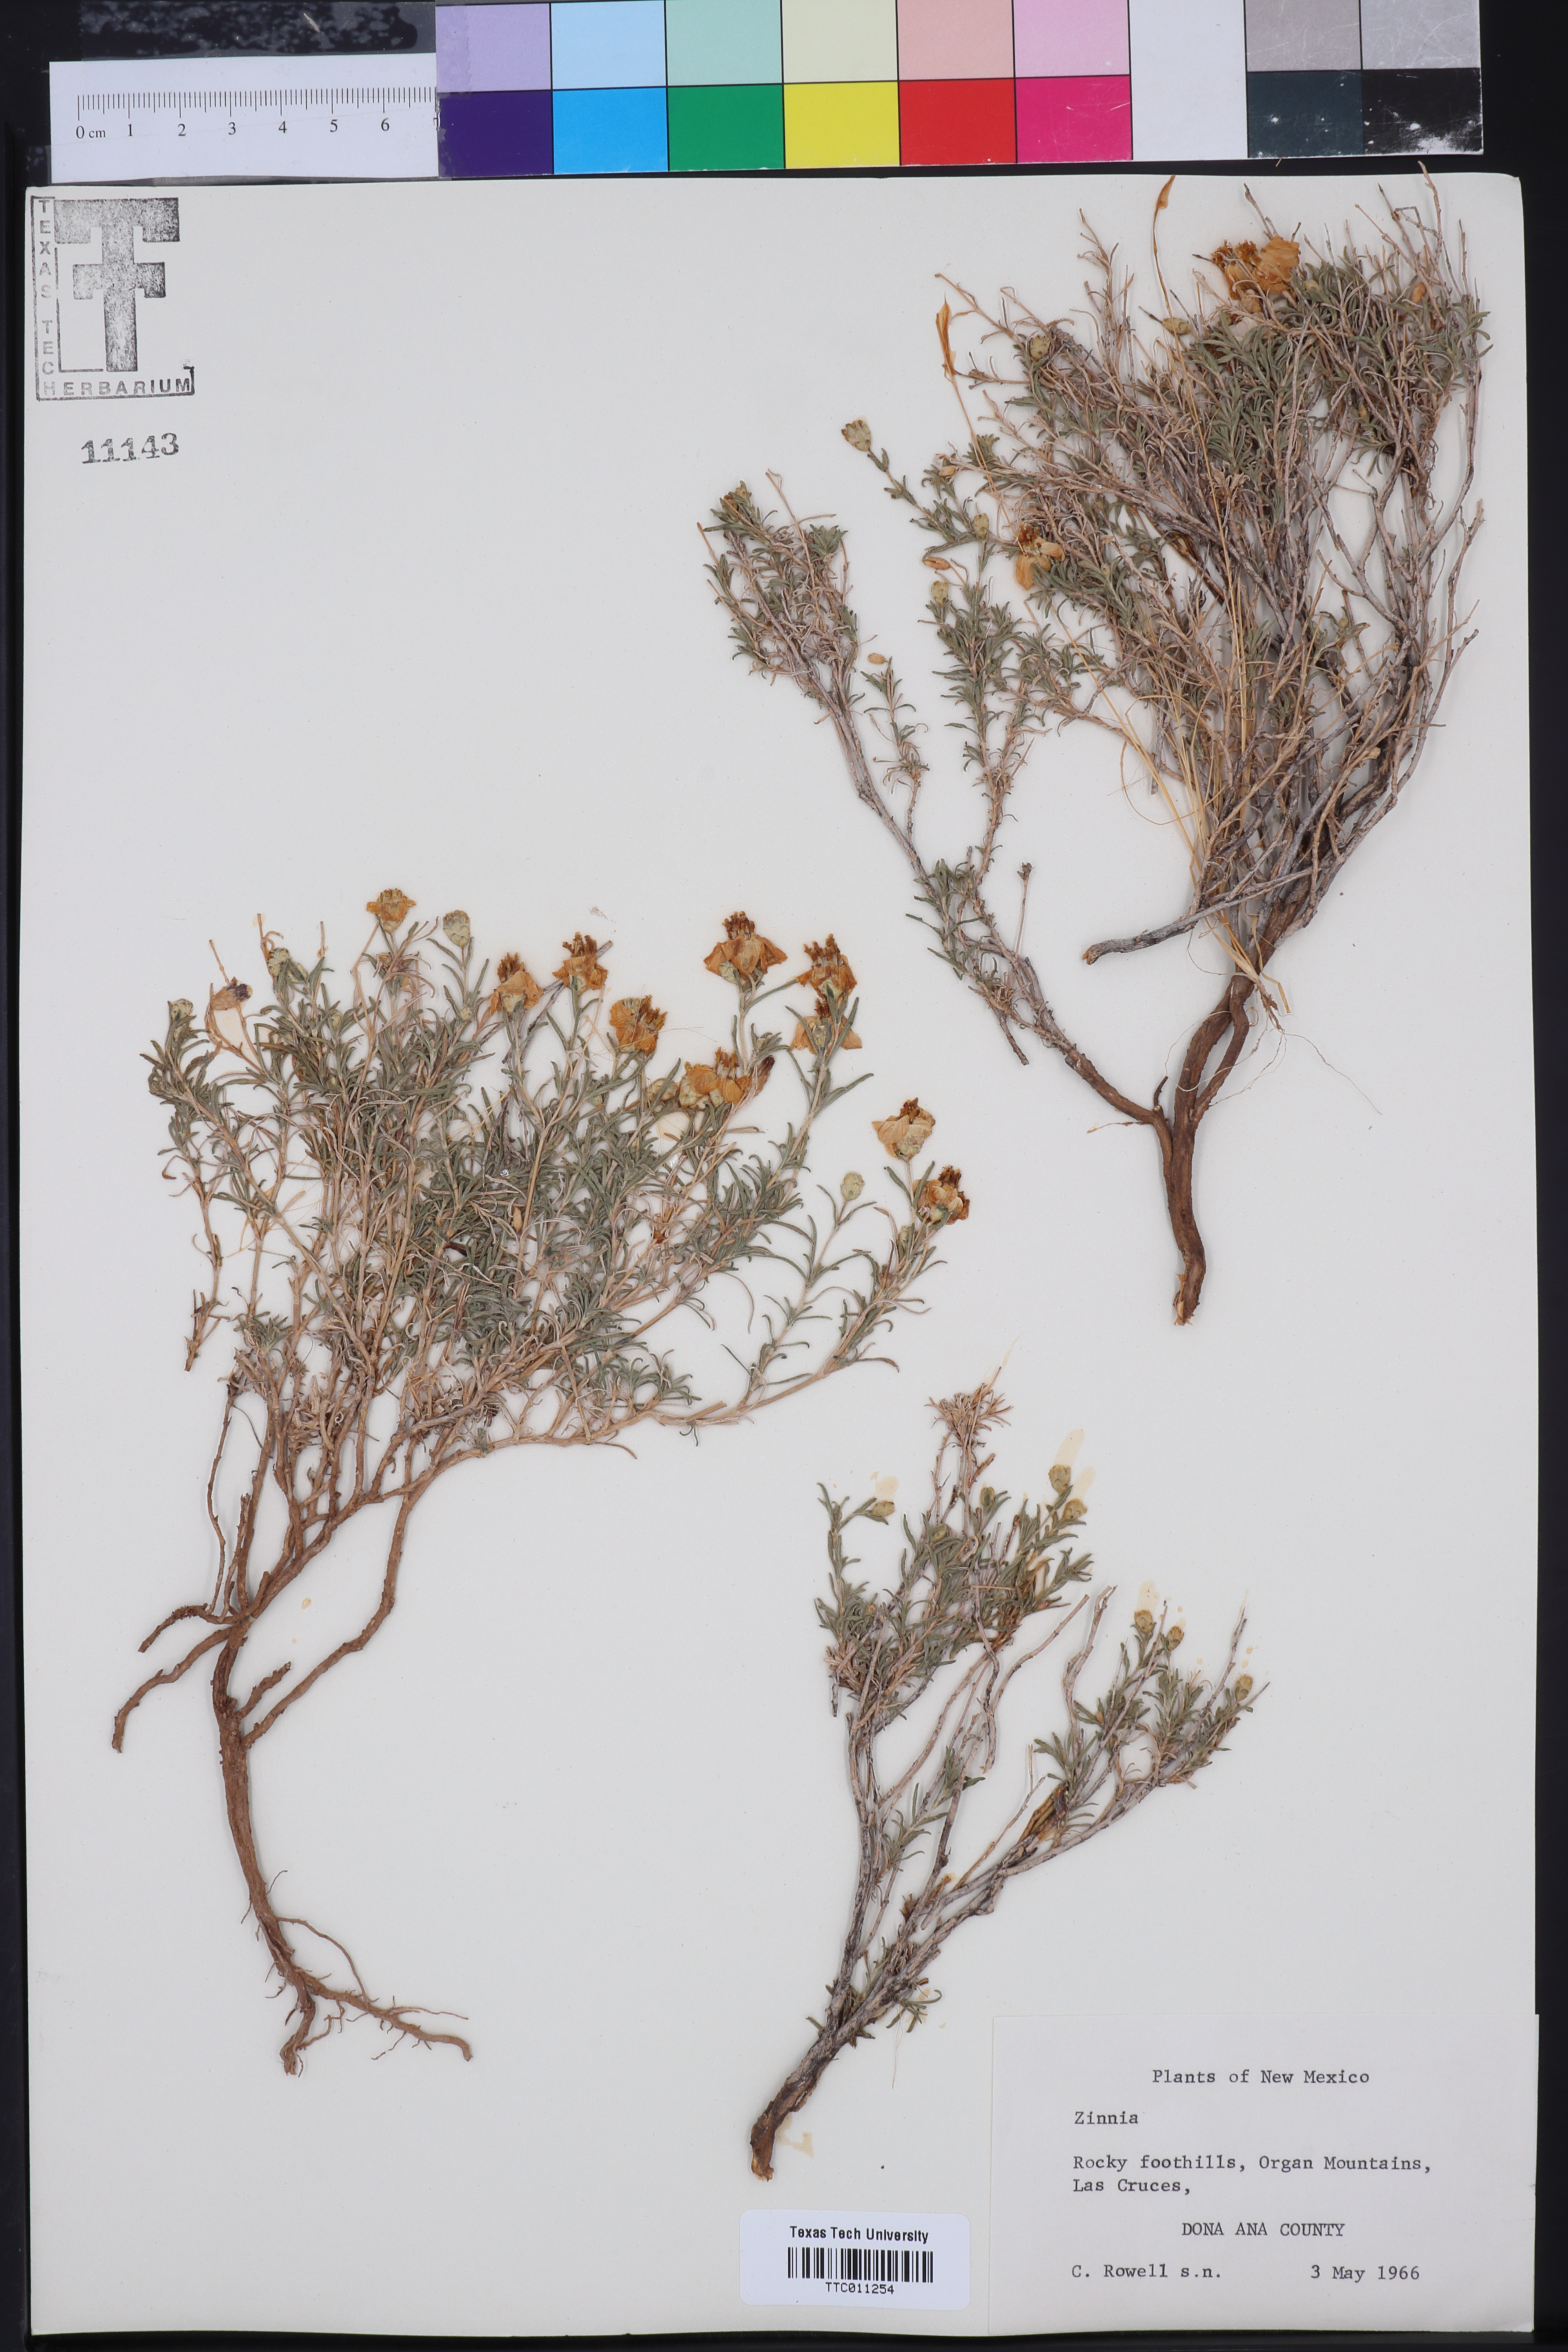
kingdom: Plantae
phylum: Tracheophyta
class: Magnoliopsida
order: Asterales
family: Asteraceae
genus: Zinnia
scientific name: Zinnia
